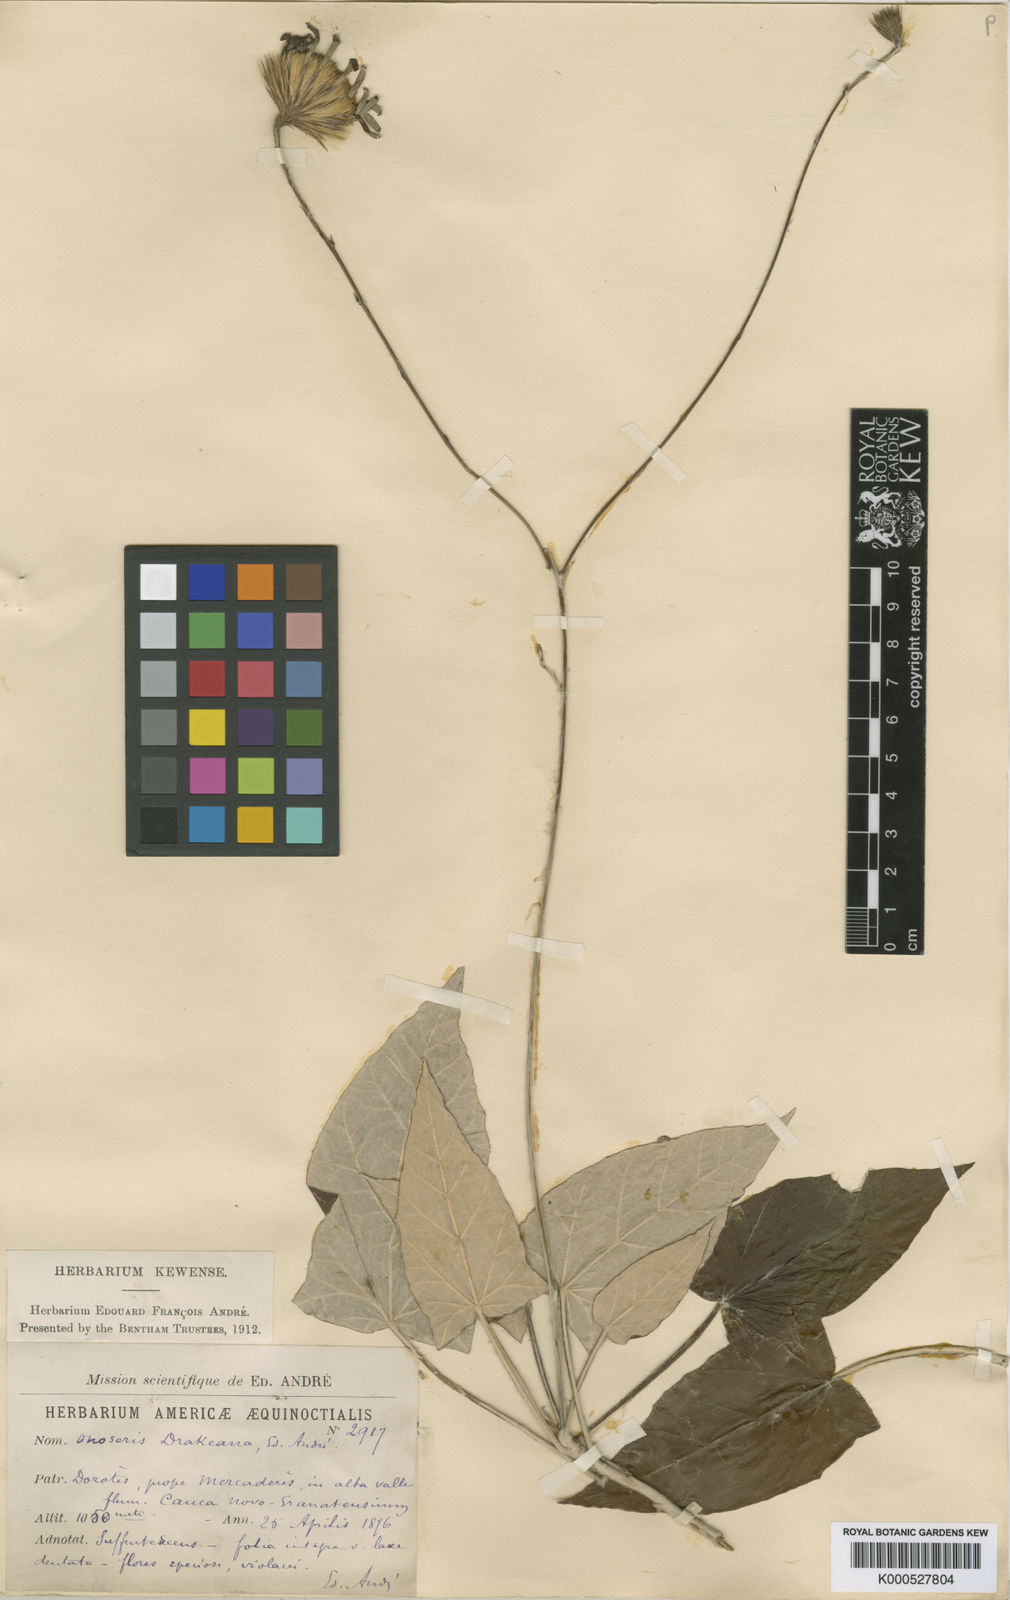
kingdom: Plantae
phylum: Tracheophyta
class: Magnoliopsida
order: Asterales
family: Asteraceae
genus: Onoseris
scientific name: Onoseris drakeana
